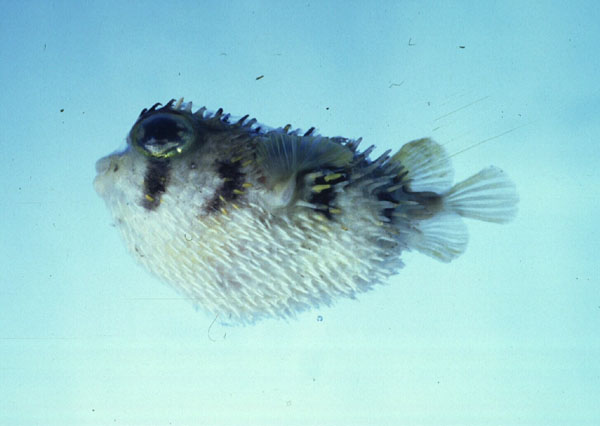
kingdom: Animalia
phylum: Chordata
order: Tetraodontiformes
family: Diodontidae
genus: Lophodiodon
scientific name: Lophodiodon calori
